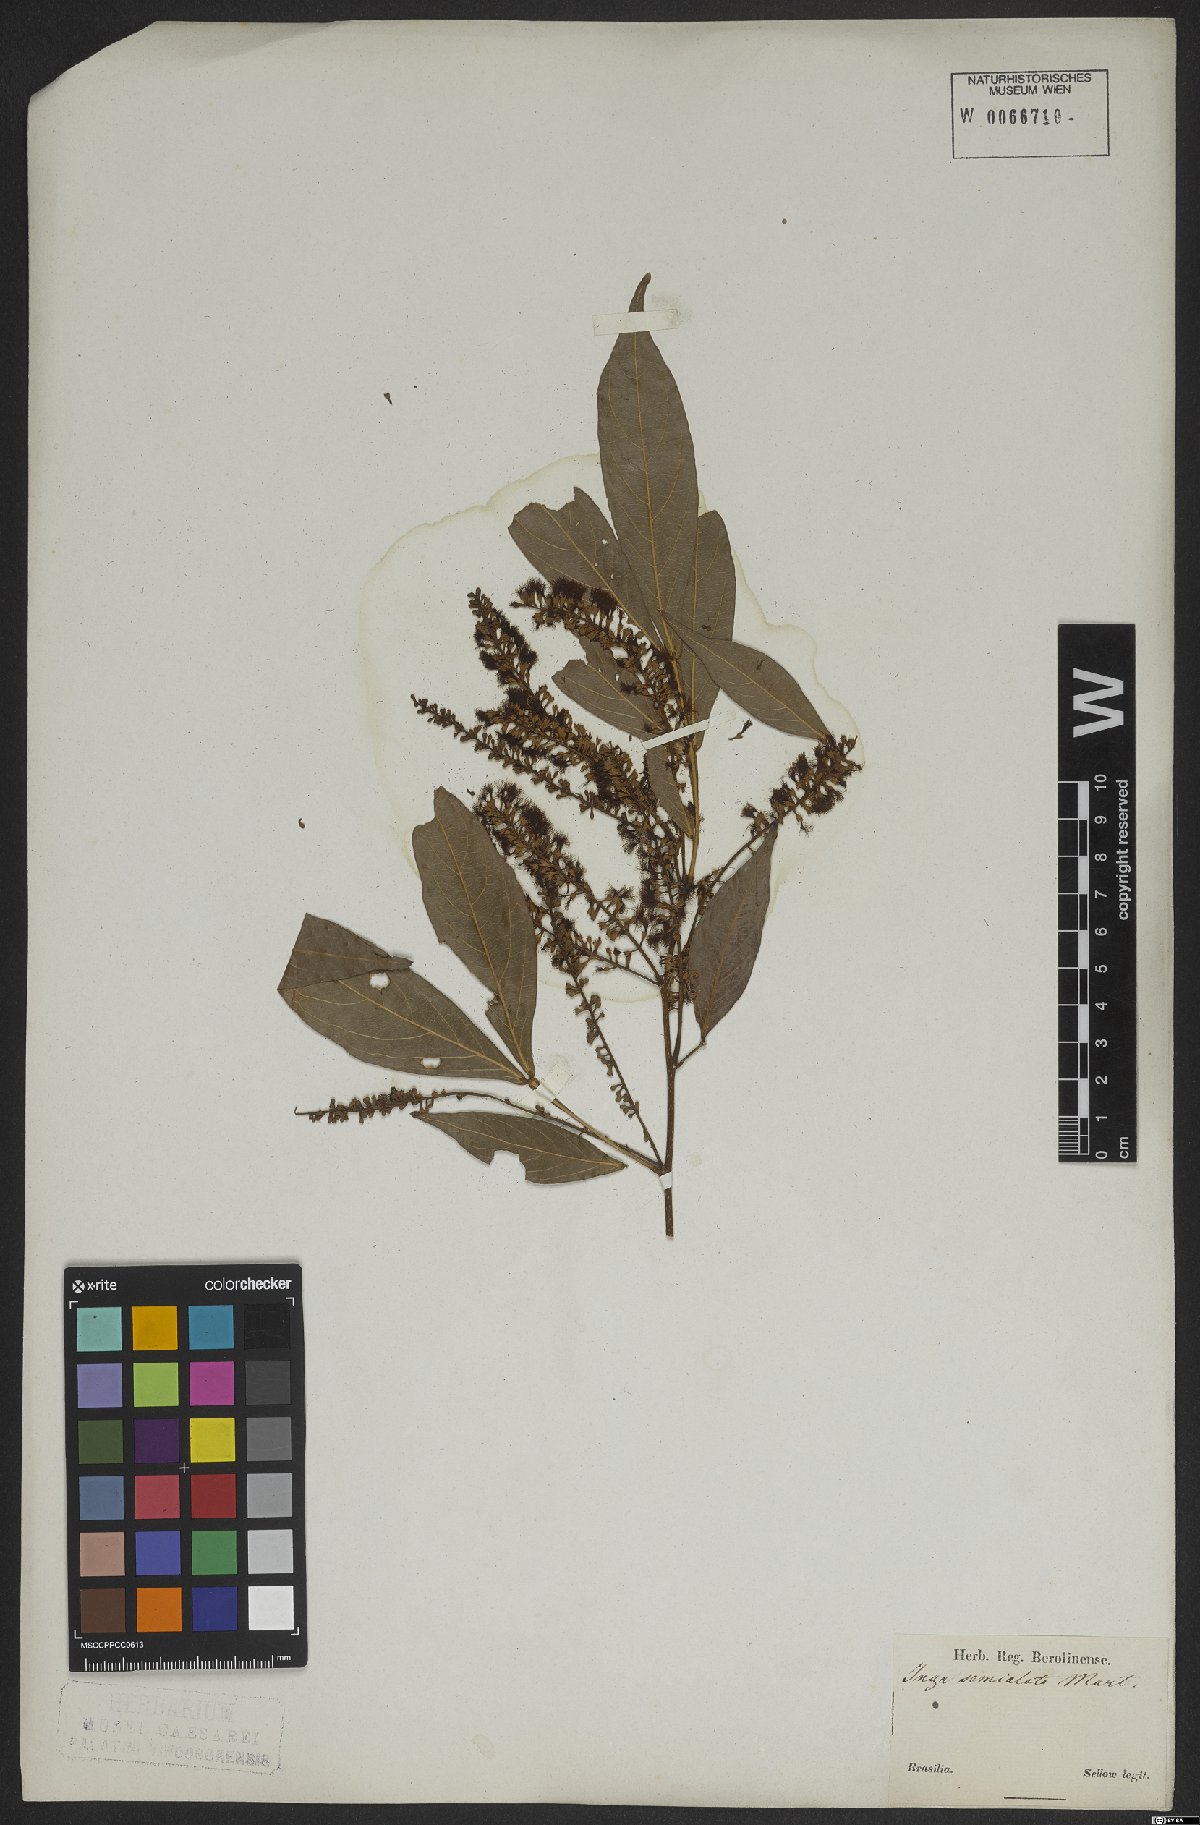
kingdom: Plantae
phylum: Tracheophyta
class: Magnoliopsida
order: Fabales
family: Fabaceae
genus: Inga
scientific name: Inga marginata
